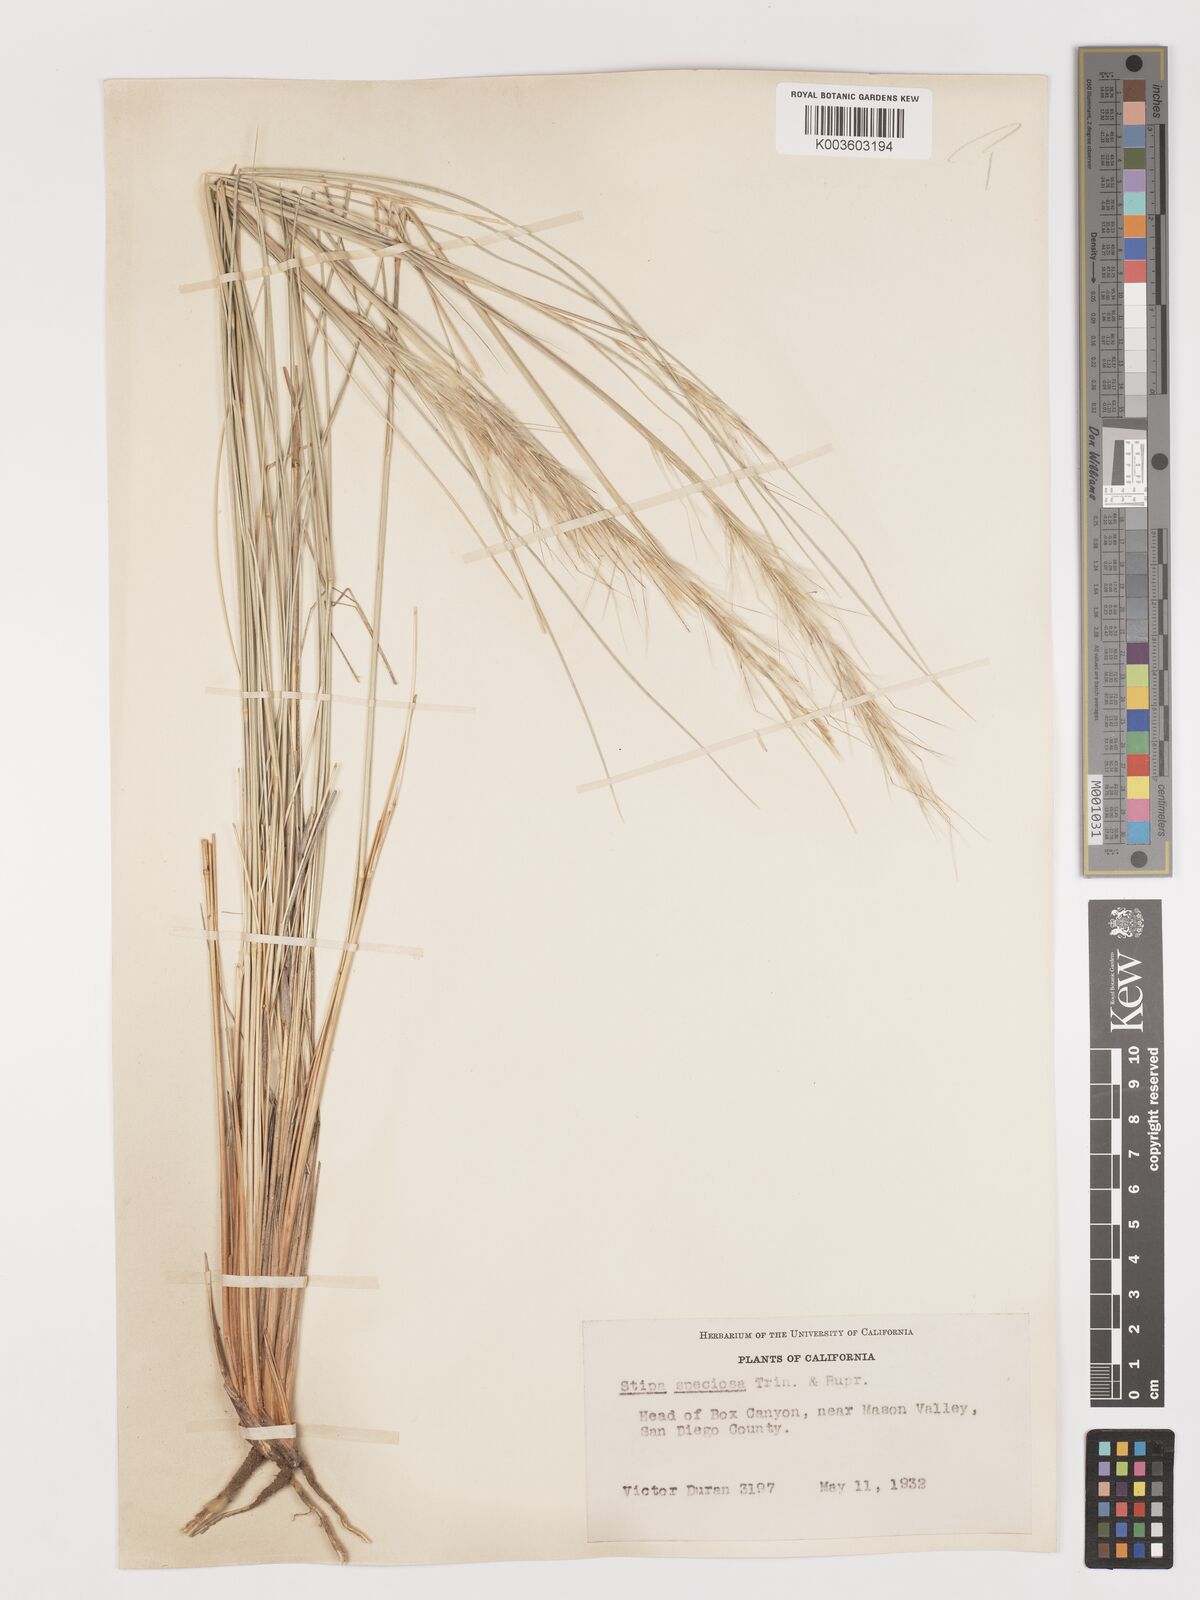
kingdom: Plantae
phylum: Tracheophyta
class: Liliopsida
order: Poales
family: Poaceae
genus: Pappostipa
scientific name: Pappostipa speciosa
